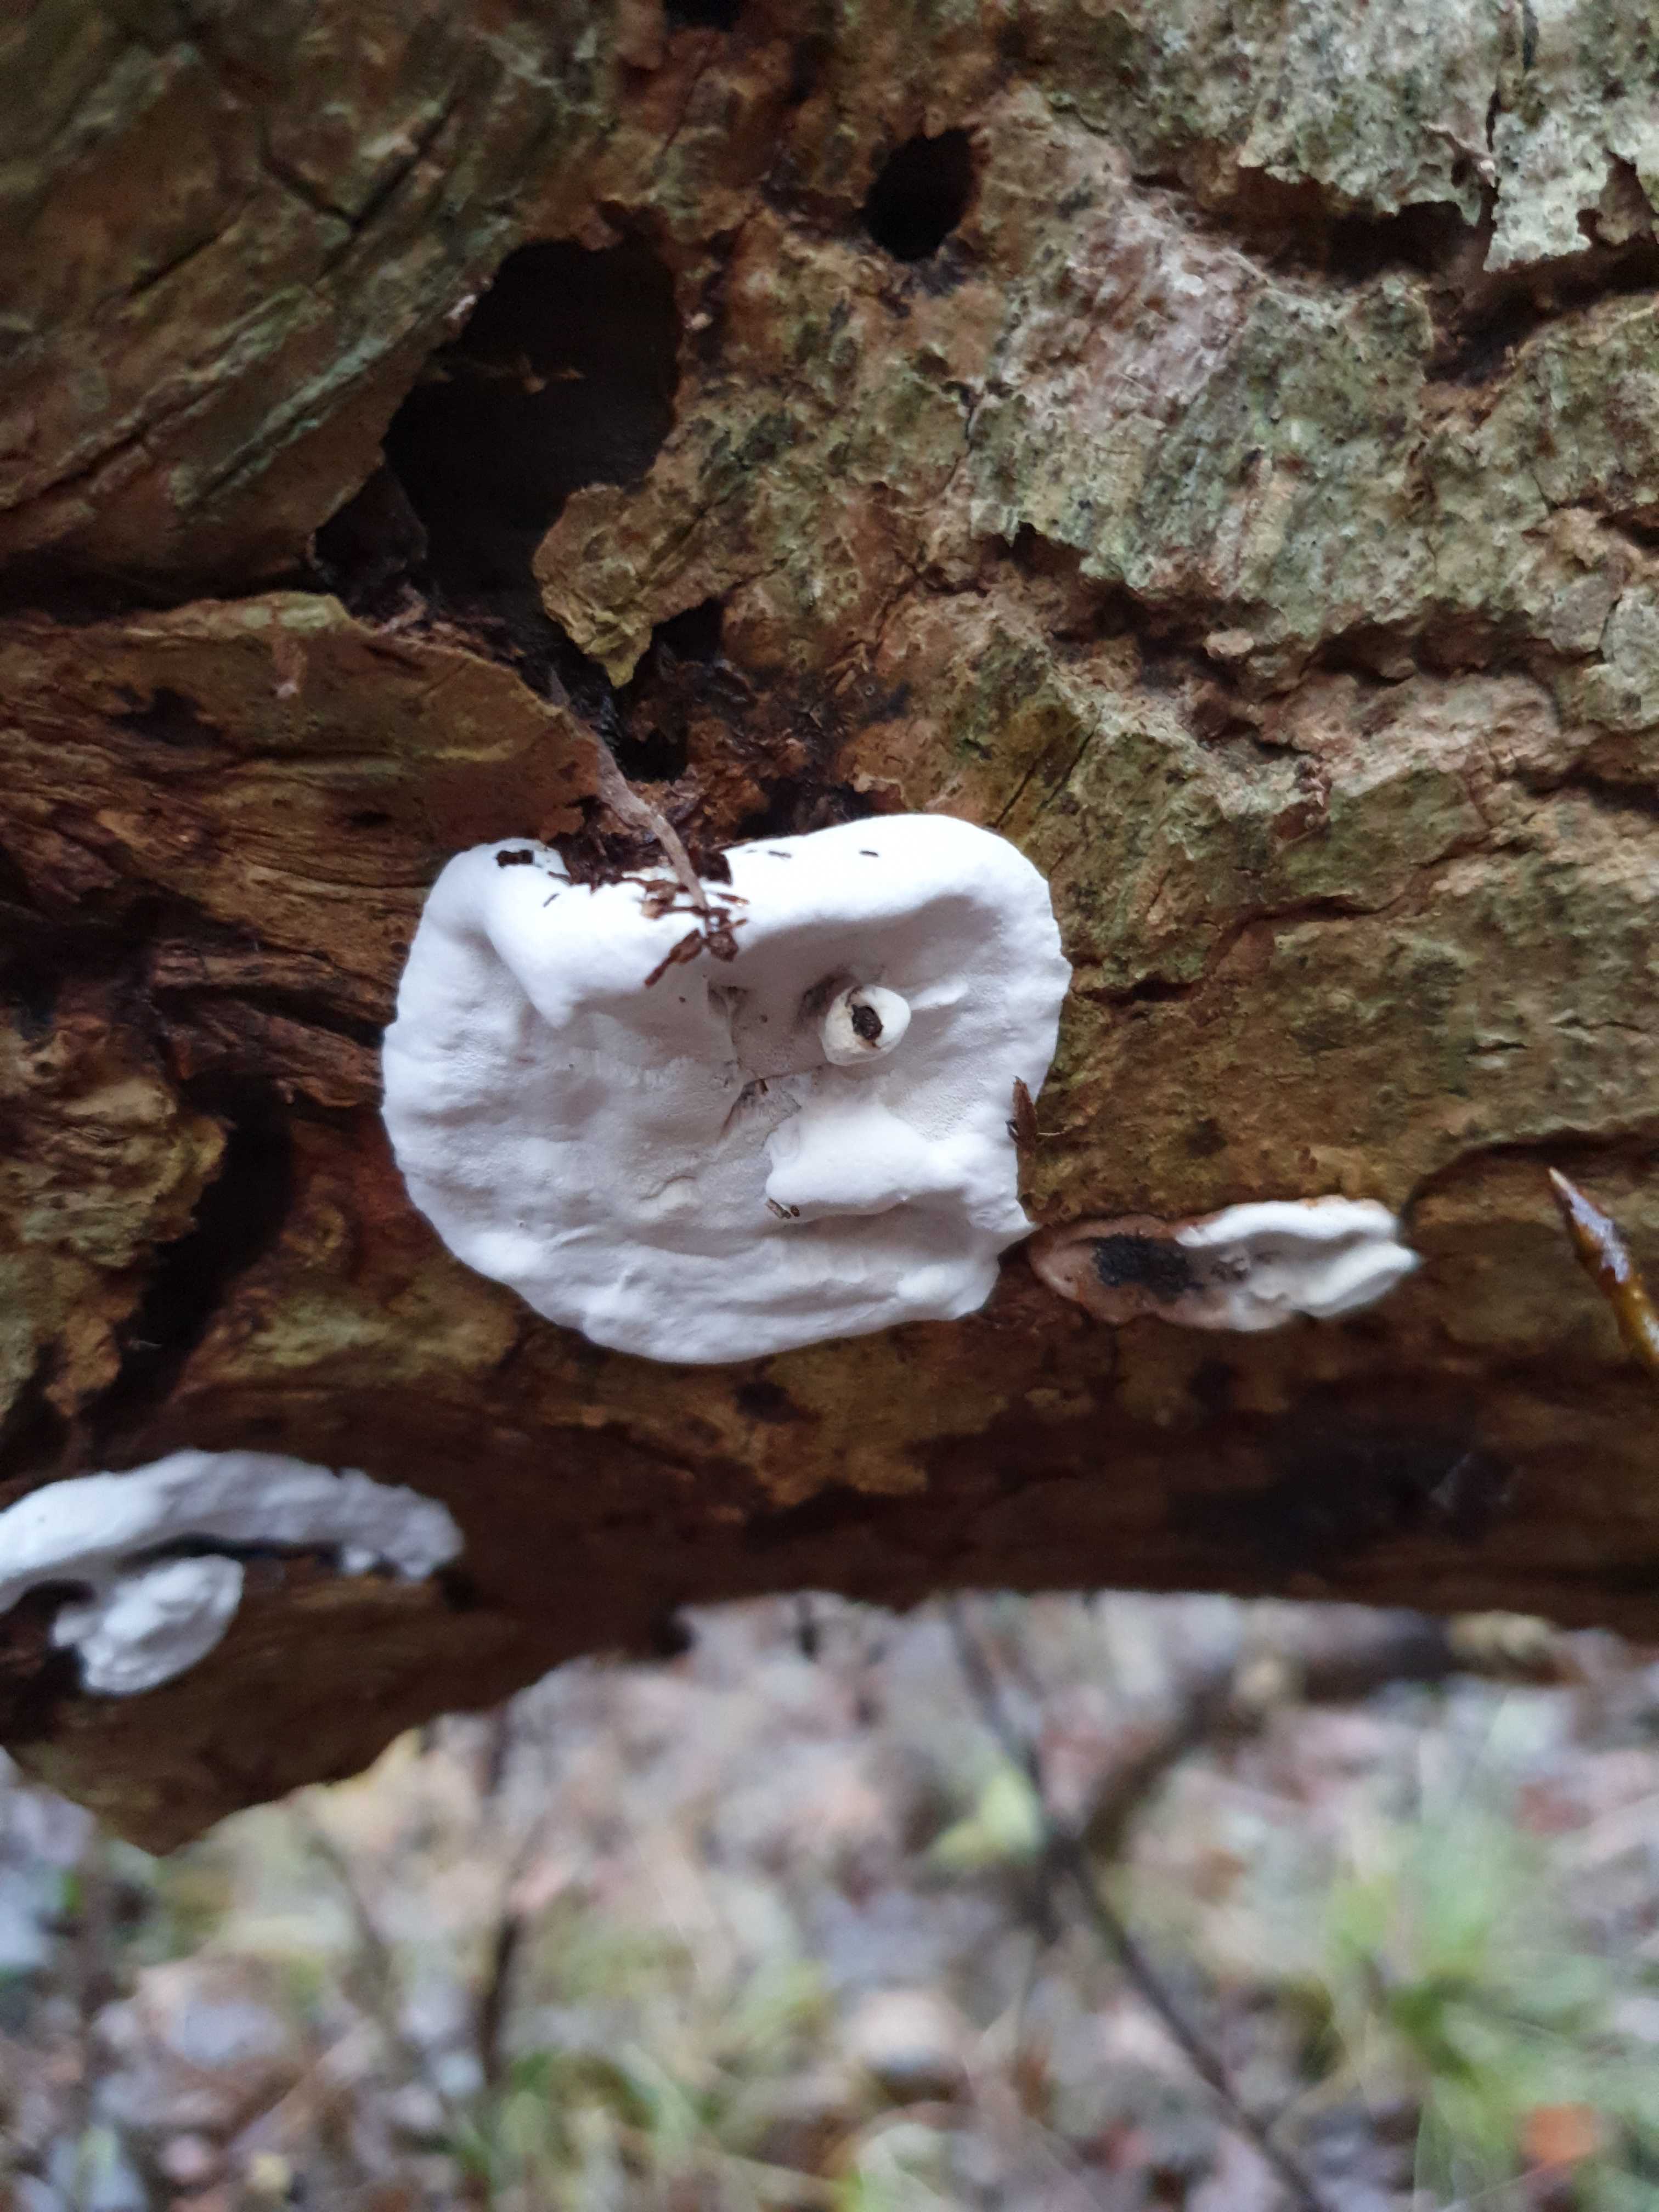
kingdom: Fungi
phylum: Basidiomycota
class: Agaricomycetes
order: Polyporales
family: Incrustoporiaceae
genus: Skeletocutis
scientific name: Skeletocutis nemoralis
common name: stor krystalporesvamp
